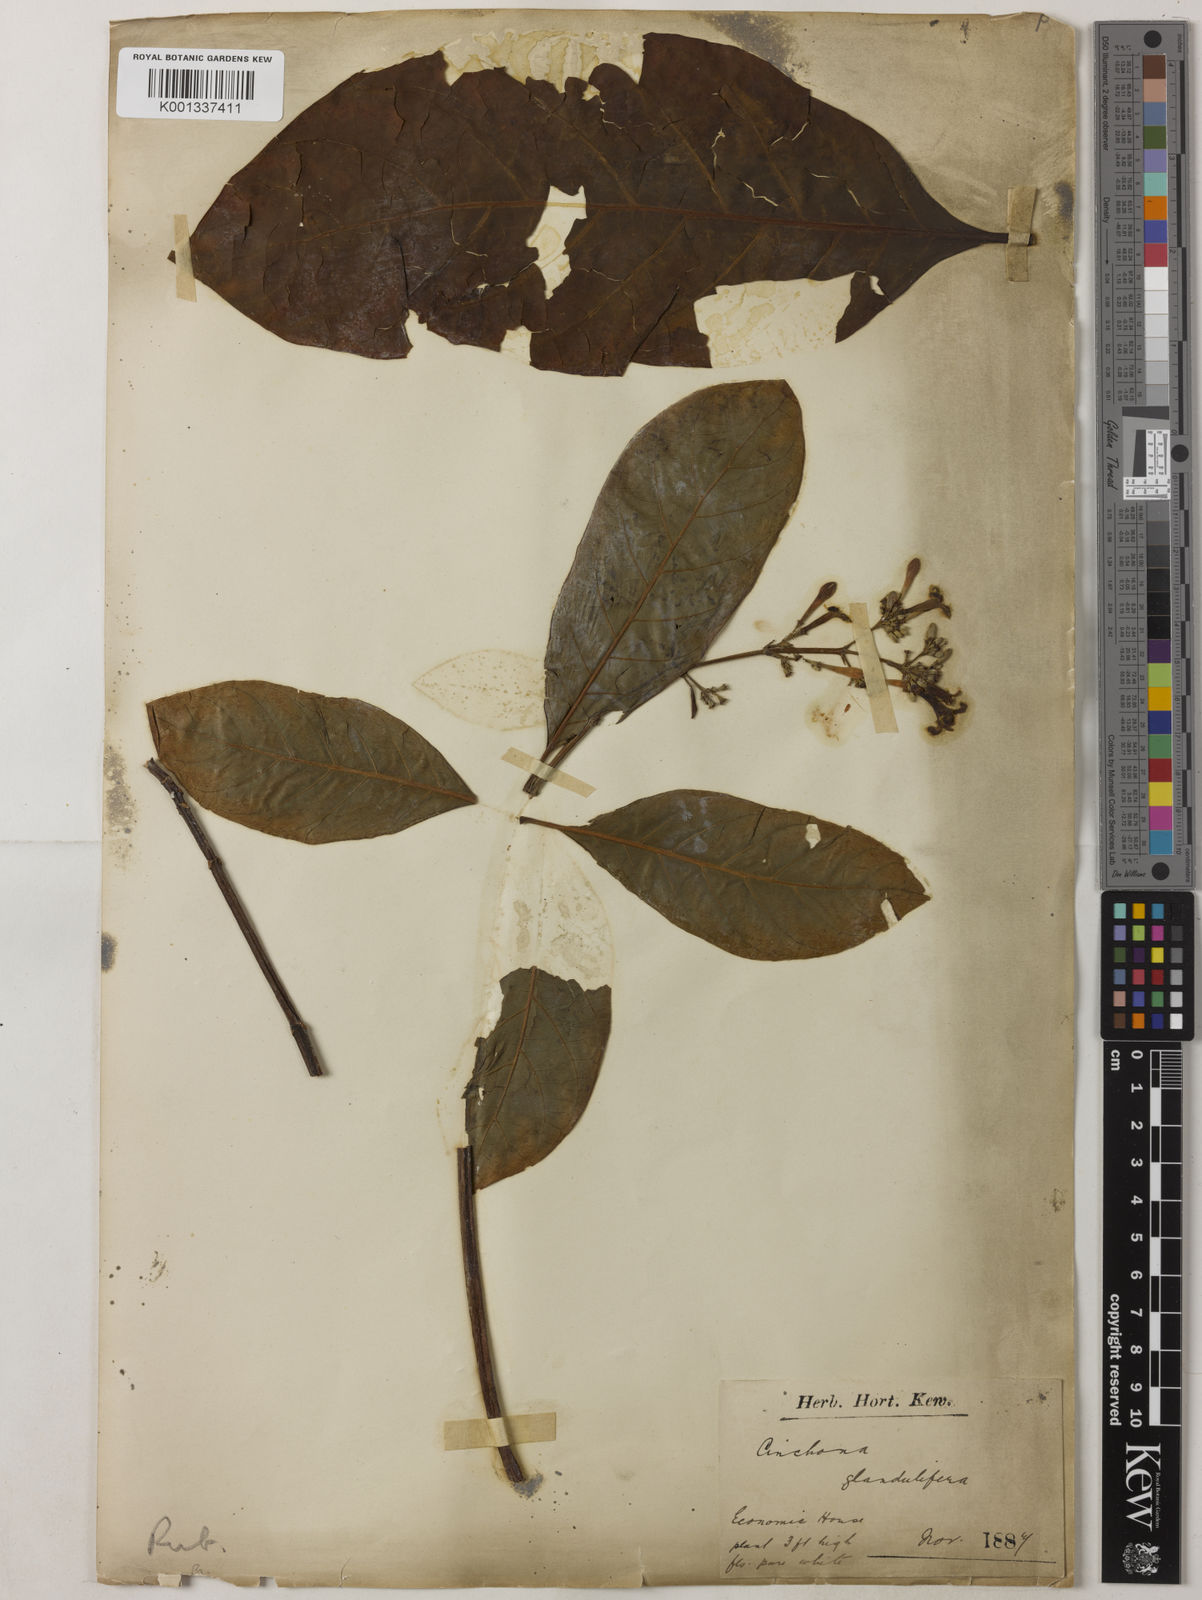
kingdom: Plantae
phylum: Tracheophyta
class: Magnoliopsida
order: Gentianales
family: Rubiaceae
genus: Cinchona
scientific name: Cinchona glandulifera
